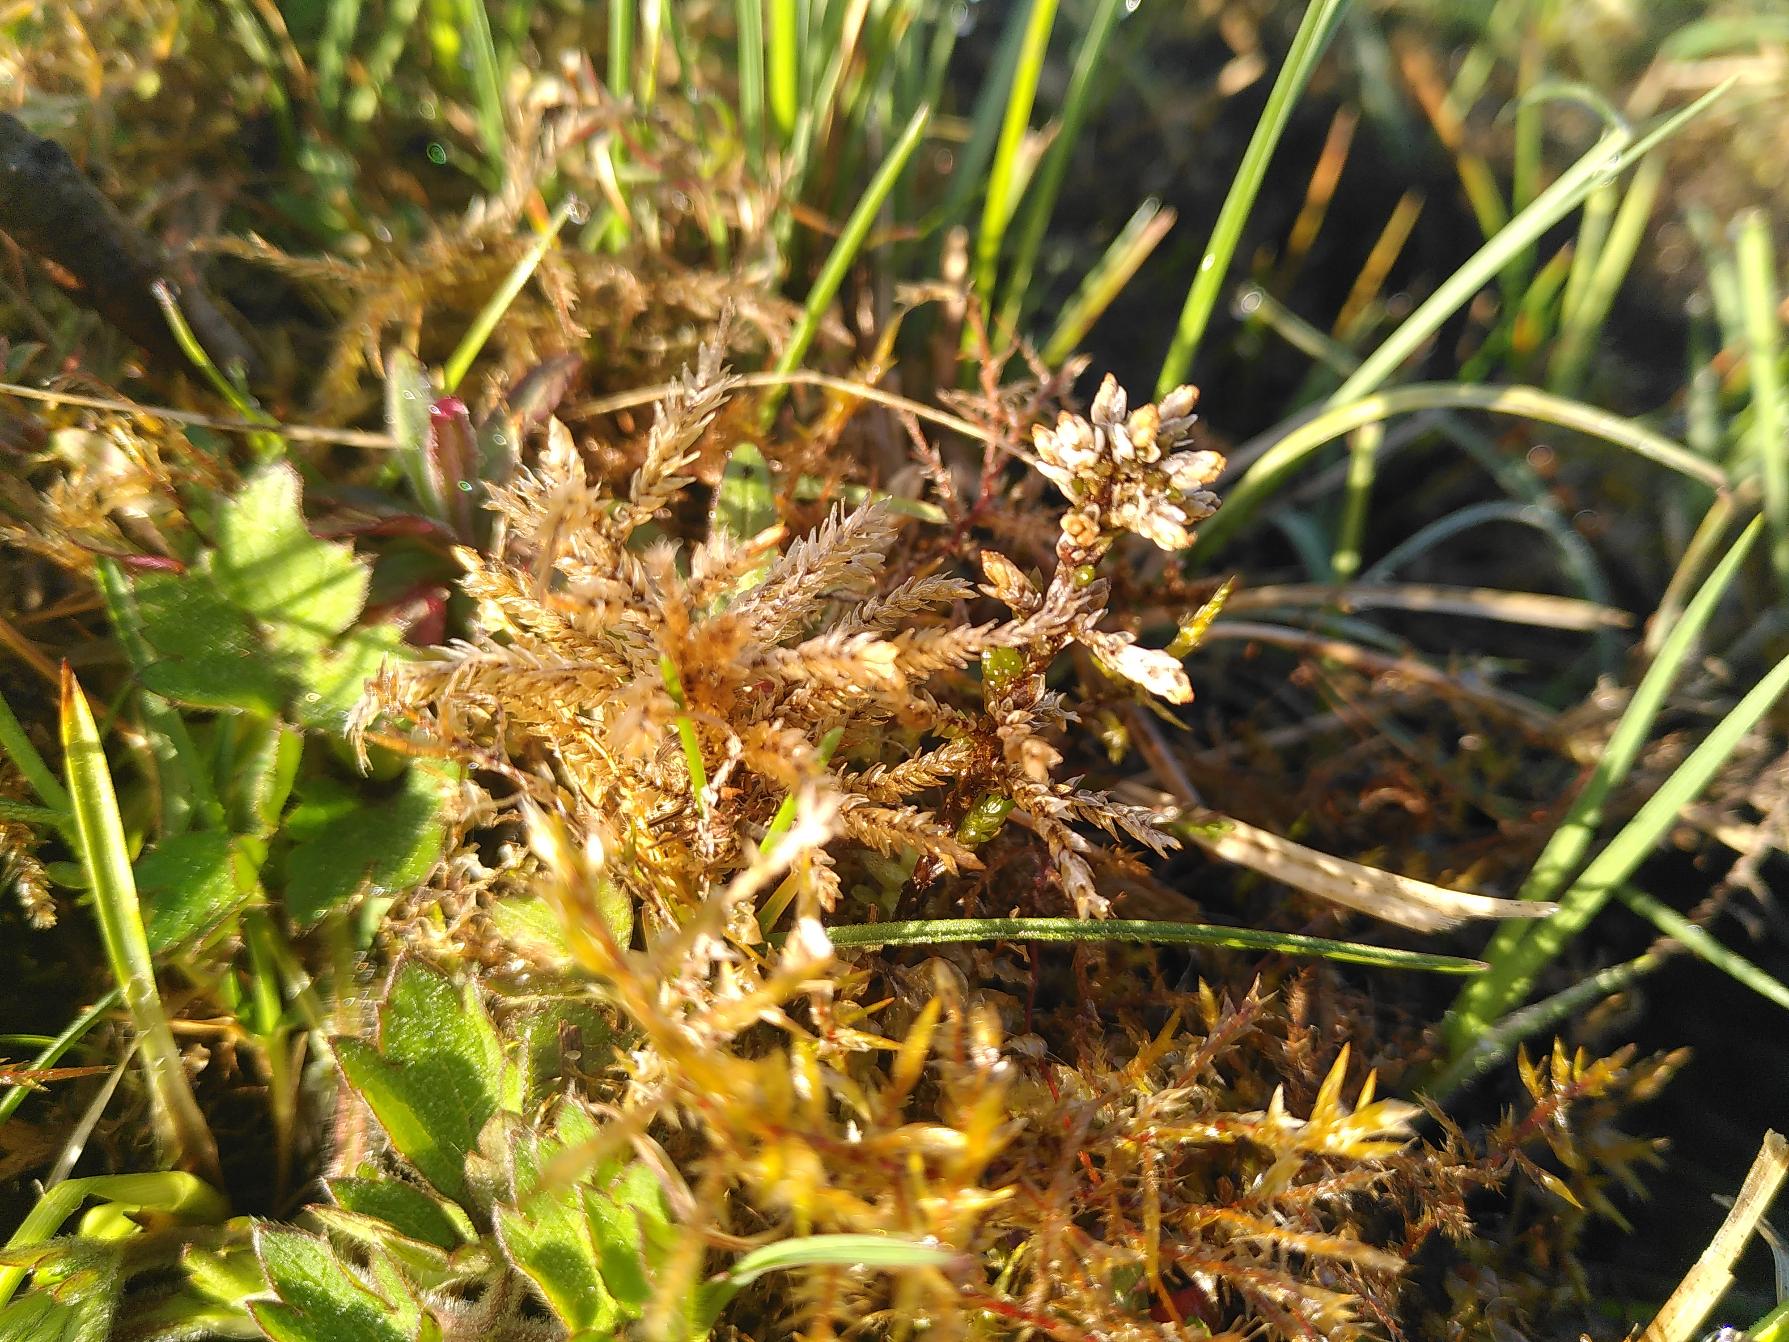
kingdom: Plantae
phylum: Bryophyta
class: Bryopsida
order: Hypnales
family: Climaciaceae
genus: Climacium
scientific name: Climacium dendroides
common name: Stor engkost
